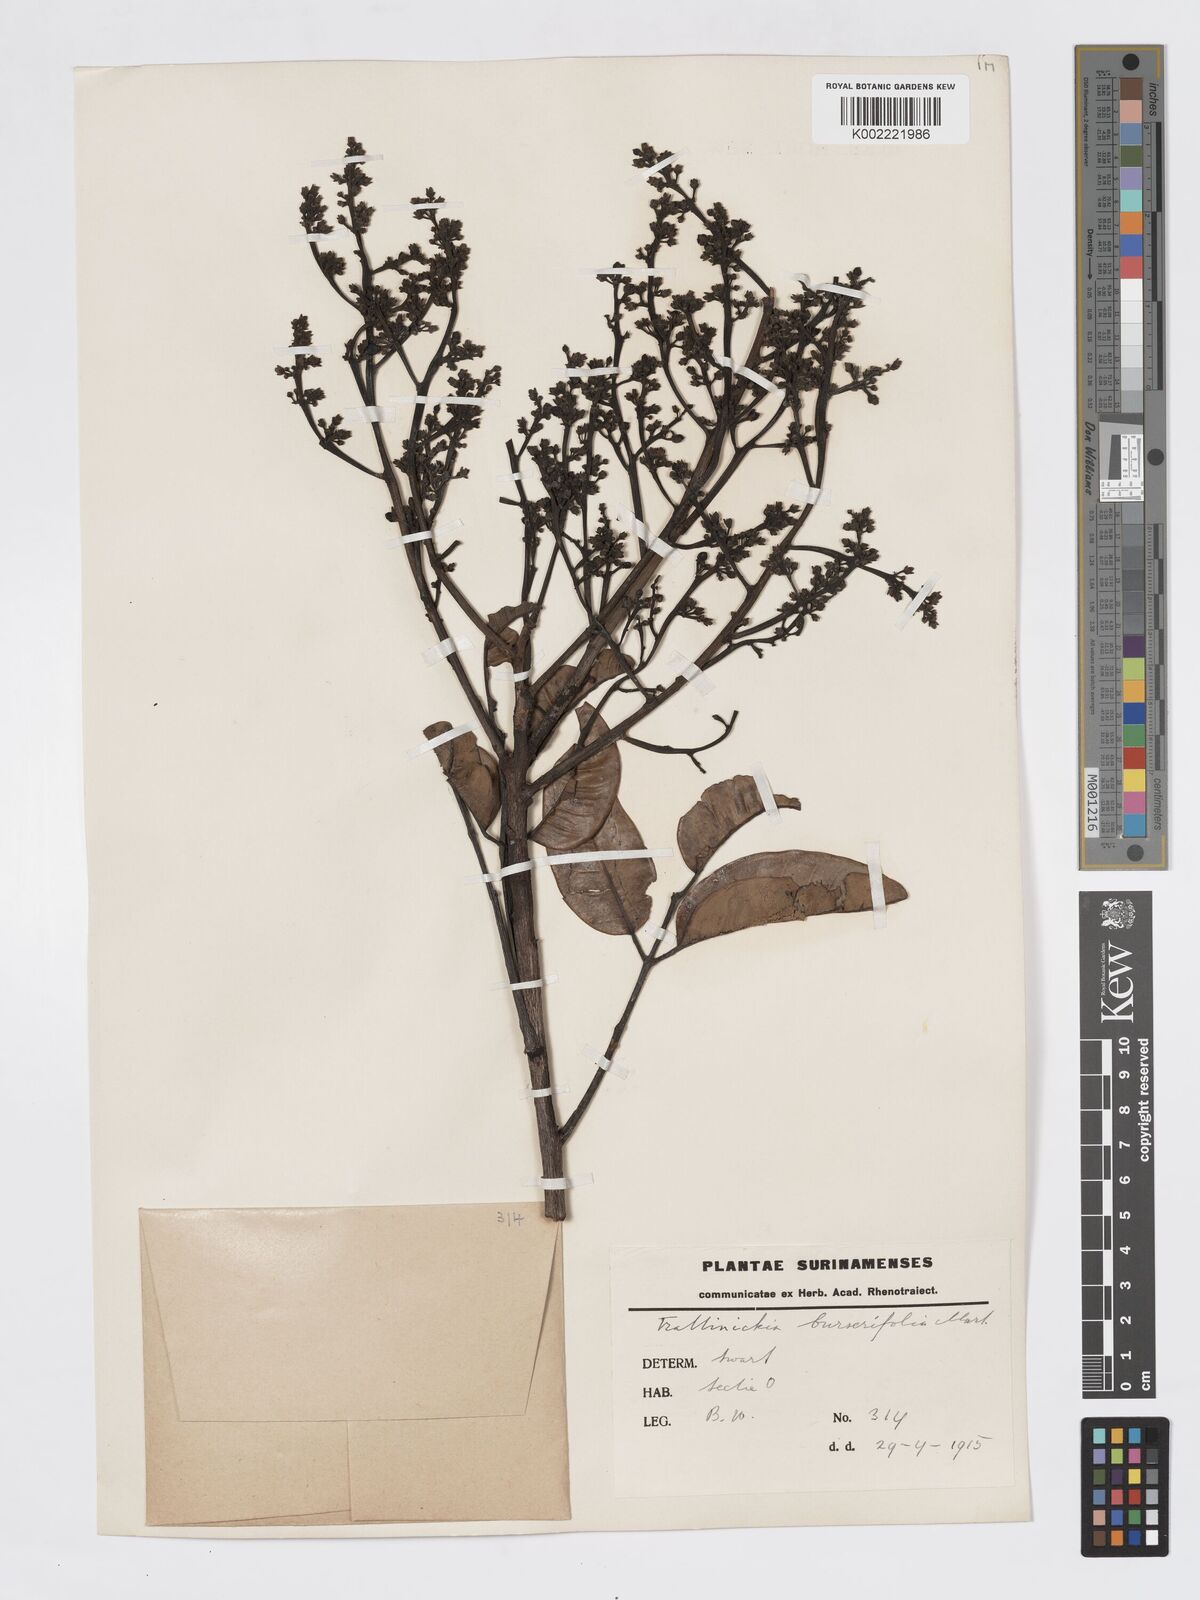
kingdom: Plantae
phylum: Tracheophyta
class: Magnoliopsida
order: Sapindales
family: Burseraceae
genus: Trattinnickia
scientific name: Trattinnickia burserifolia
